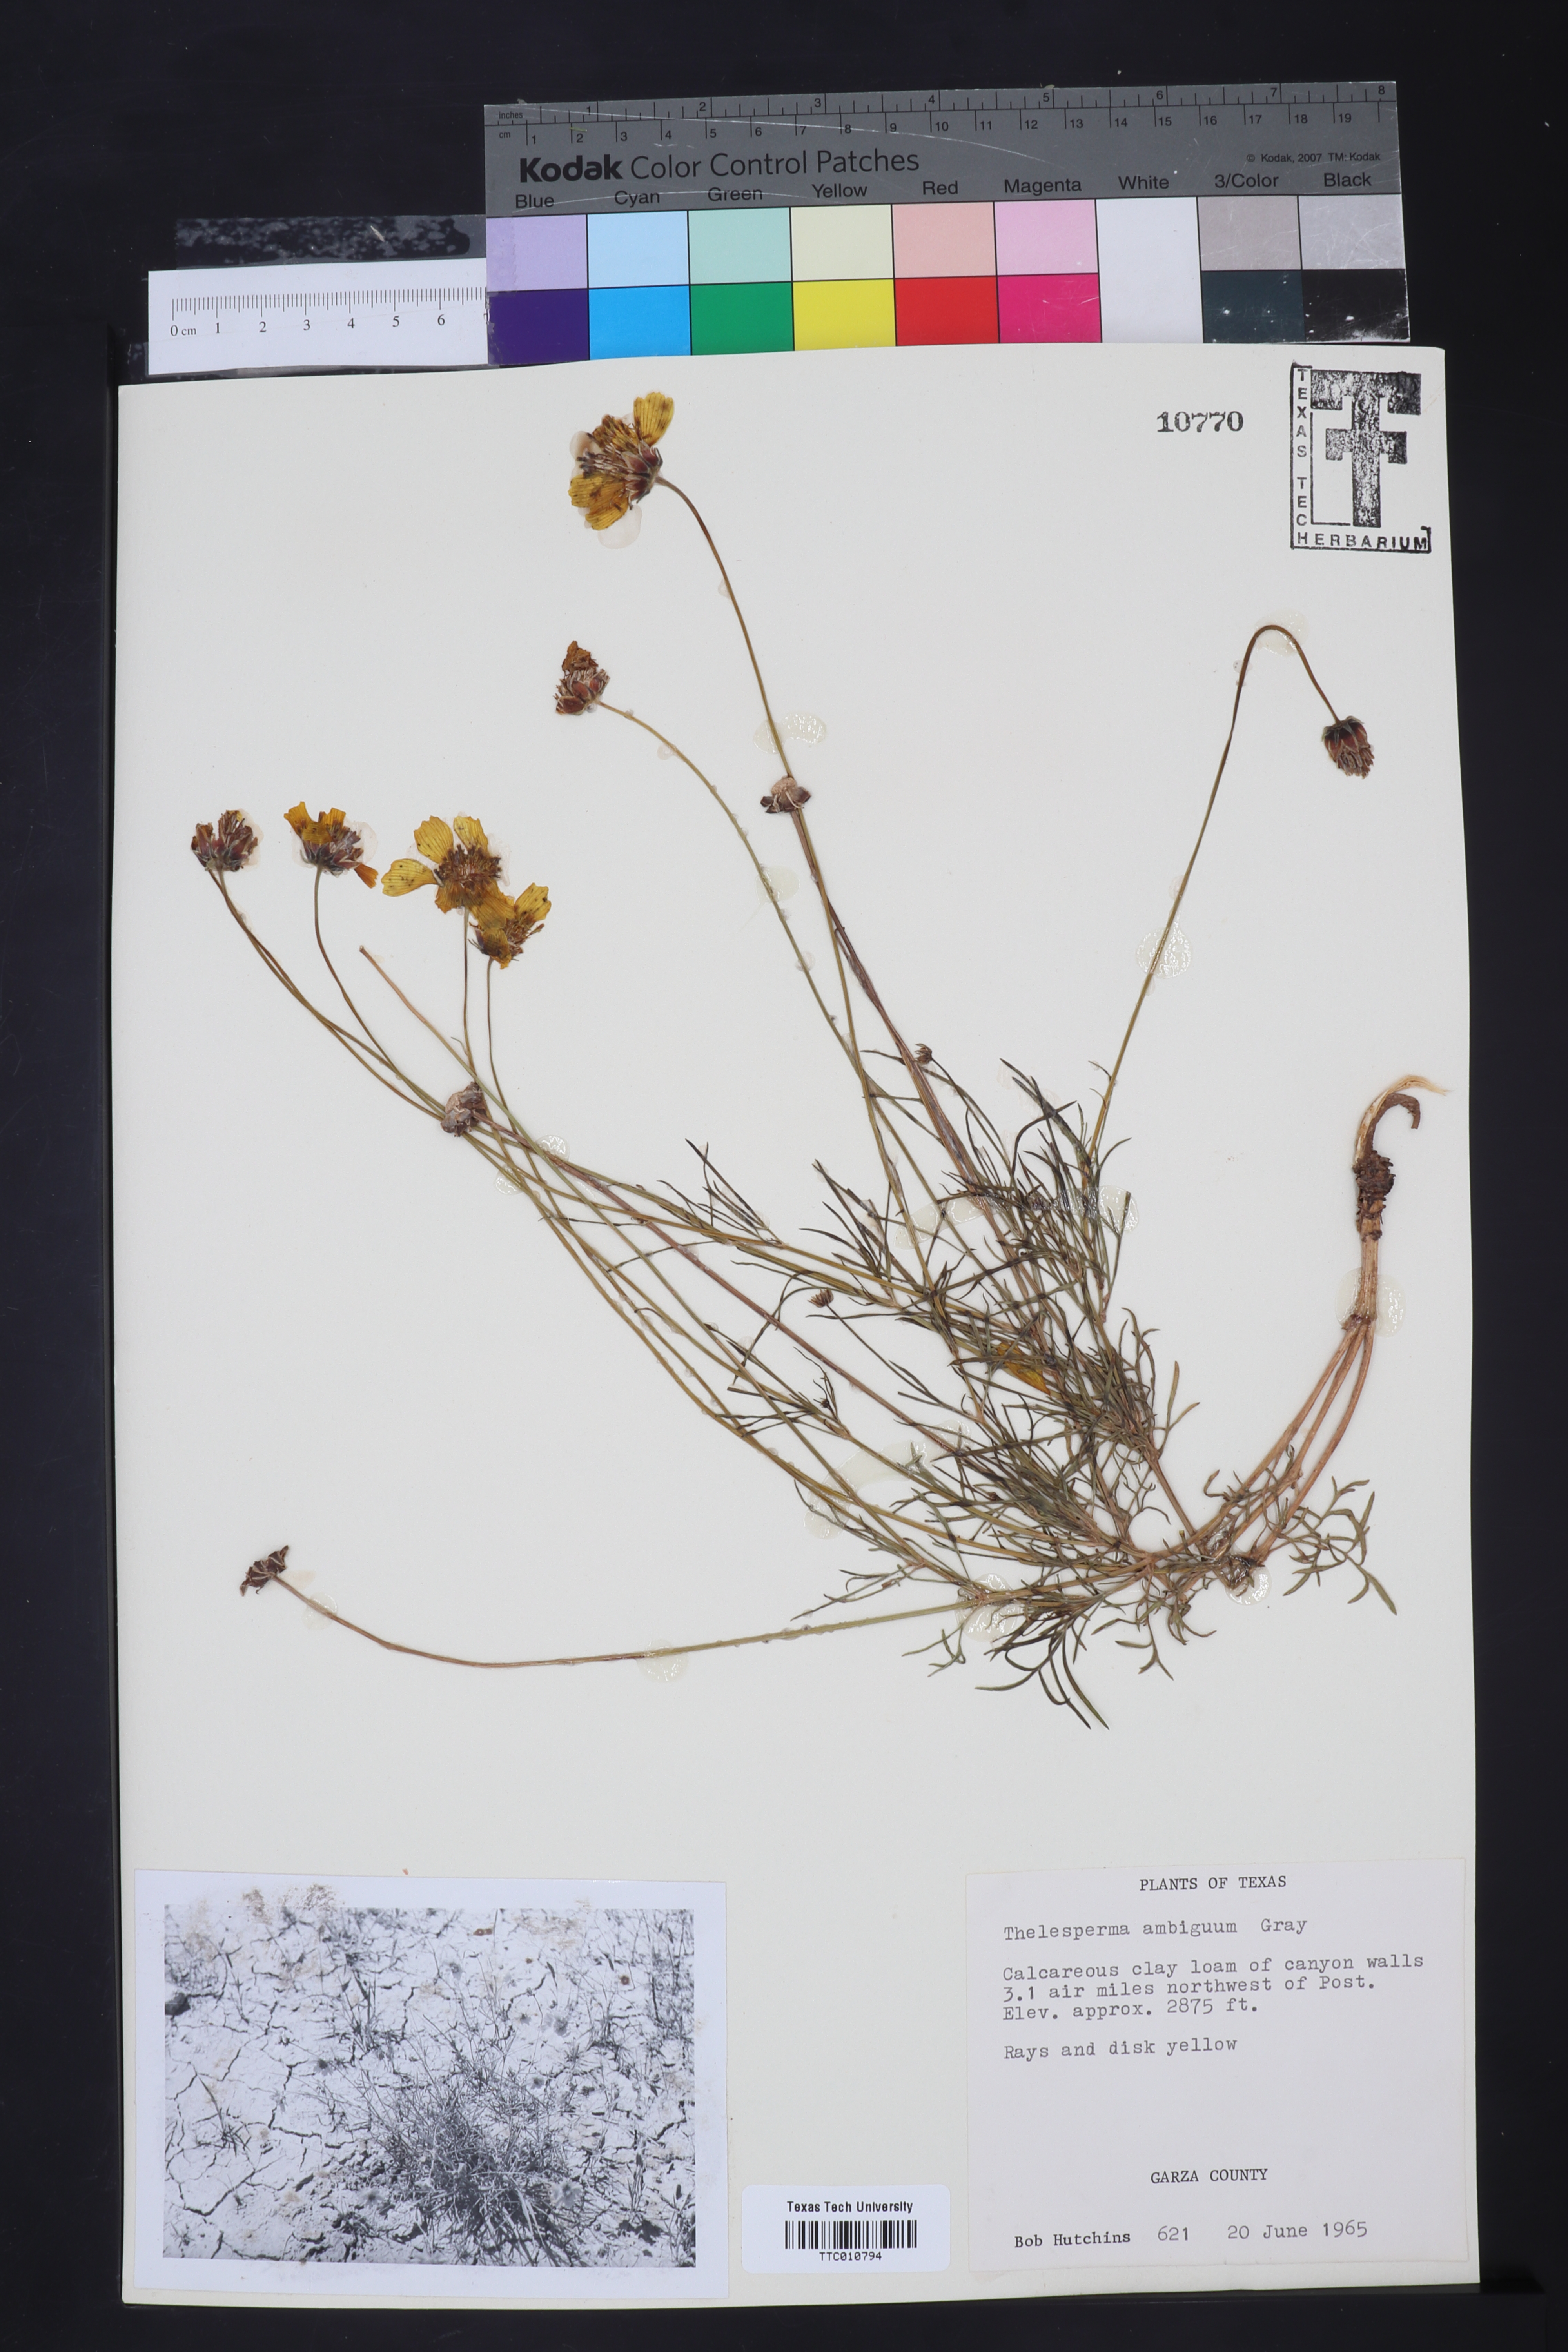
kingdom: Plantae
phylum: Tracheophyta
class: Magnoliopsida
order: Asterales
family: Asteraceae
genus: Thelesperma
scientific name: Thelesperma ambiguum
